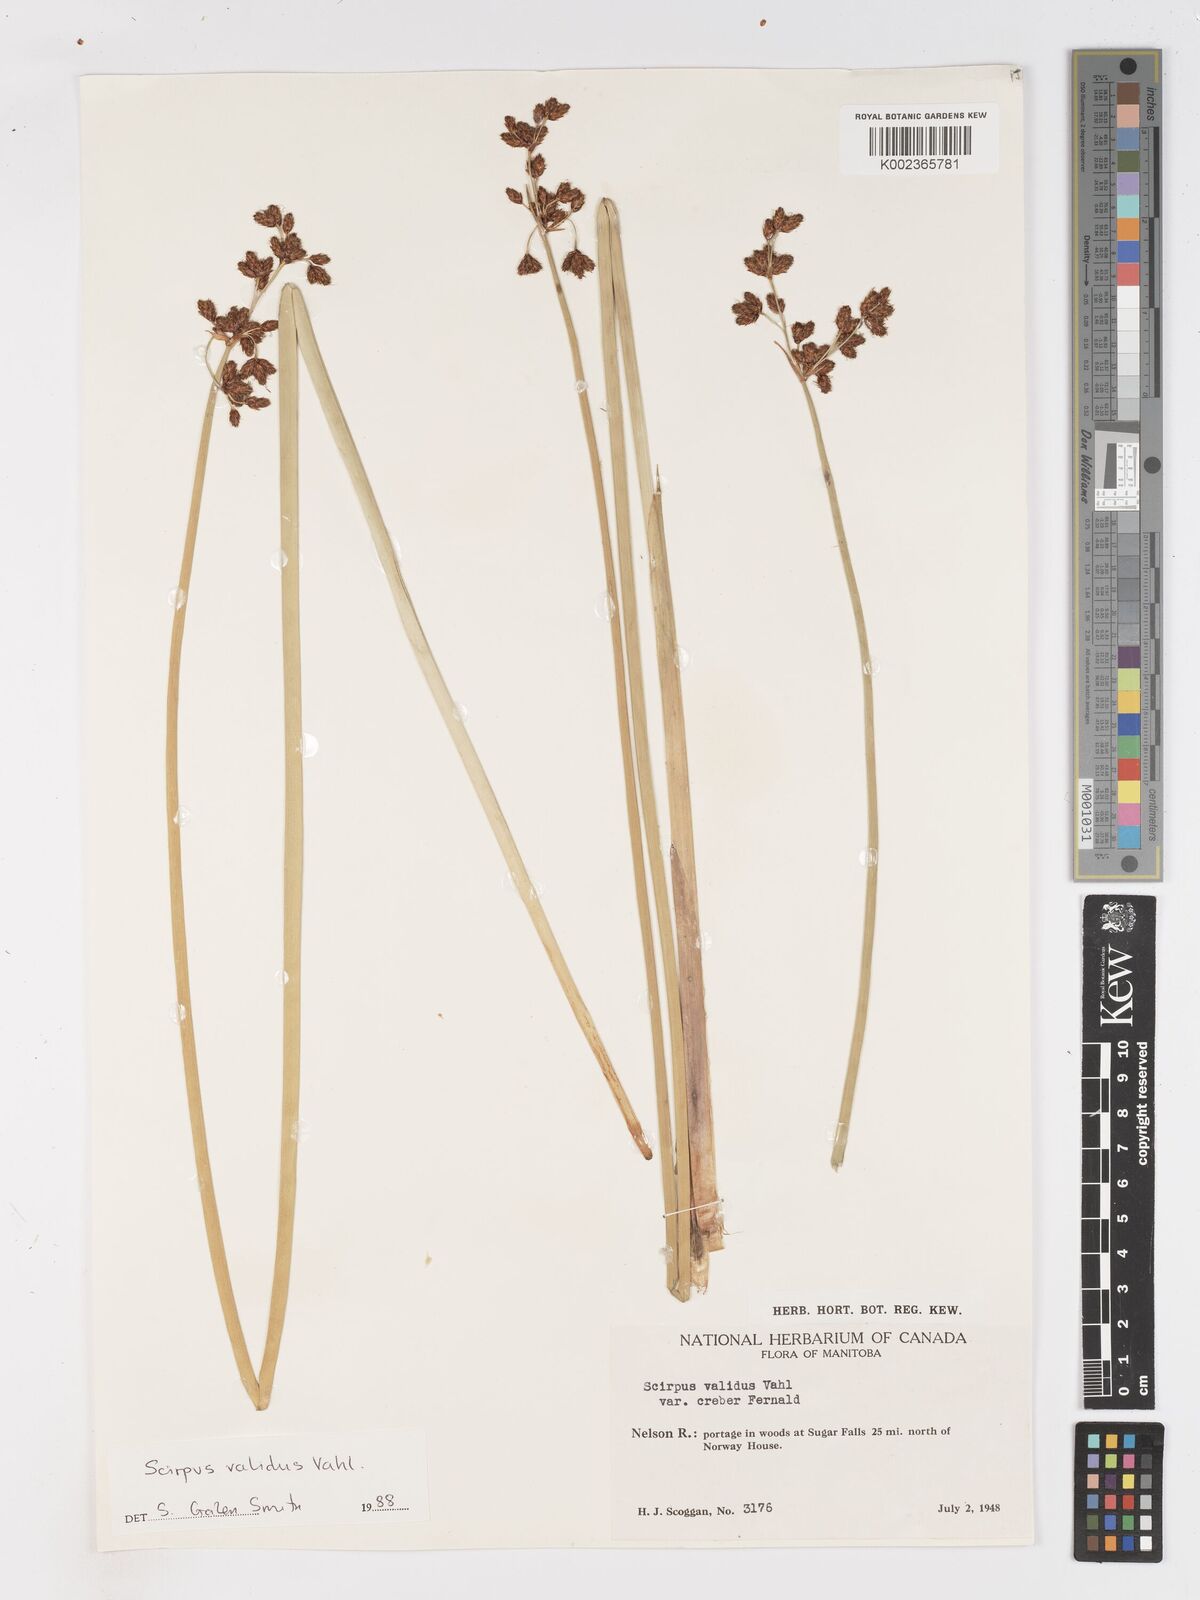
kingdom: Plantae
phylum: Tracheophyta
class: Liliopsida
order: Poales
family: Cyperaceae
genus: Schoenoplectus
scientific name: Schoenoplectus tabernaemontani
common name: Grey club-rush
